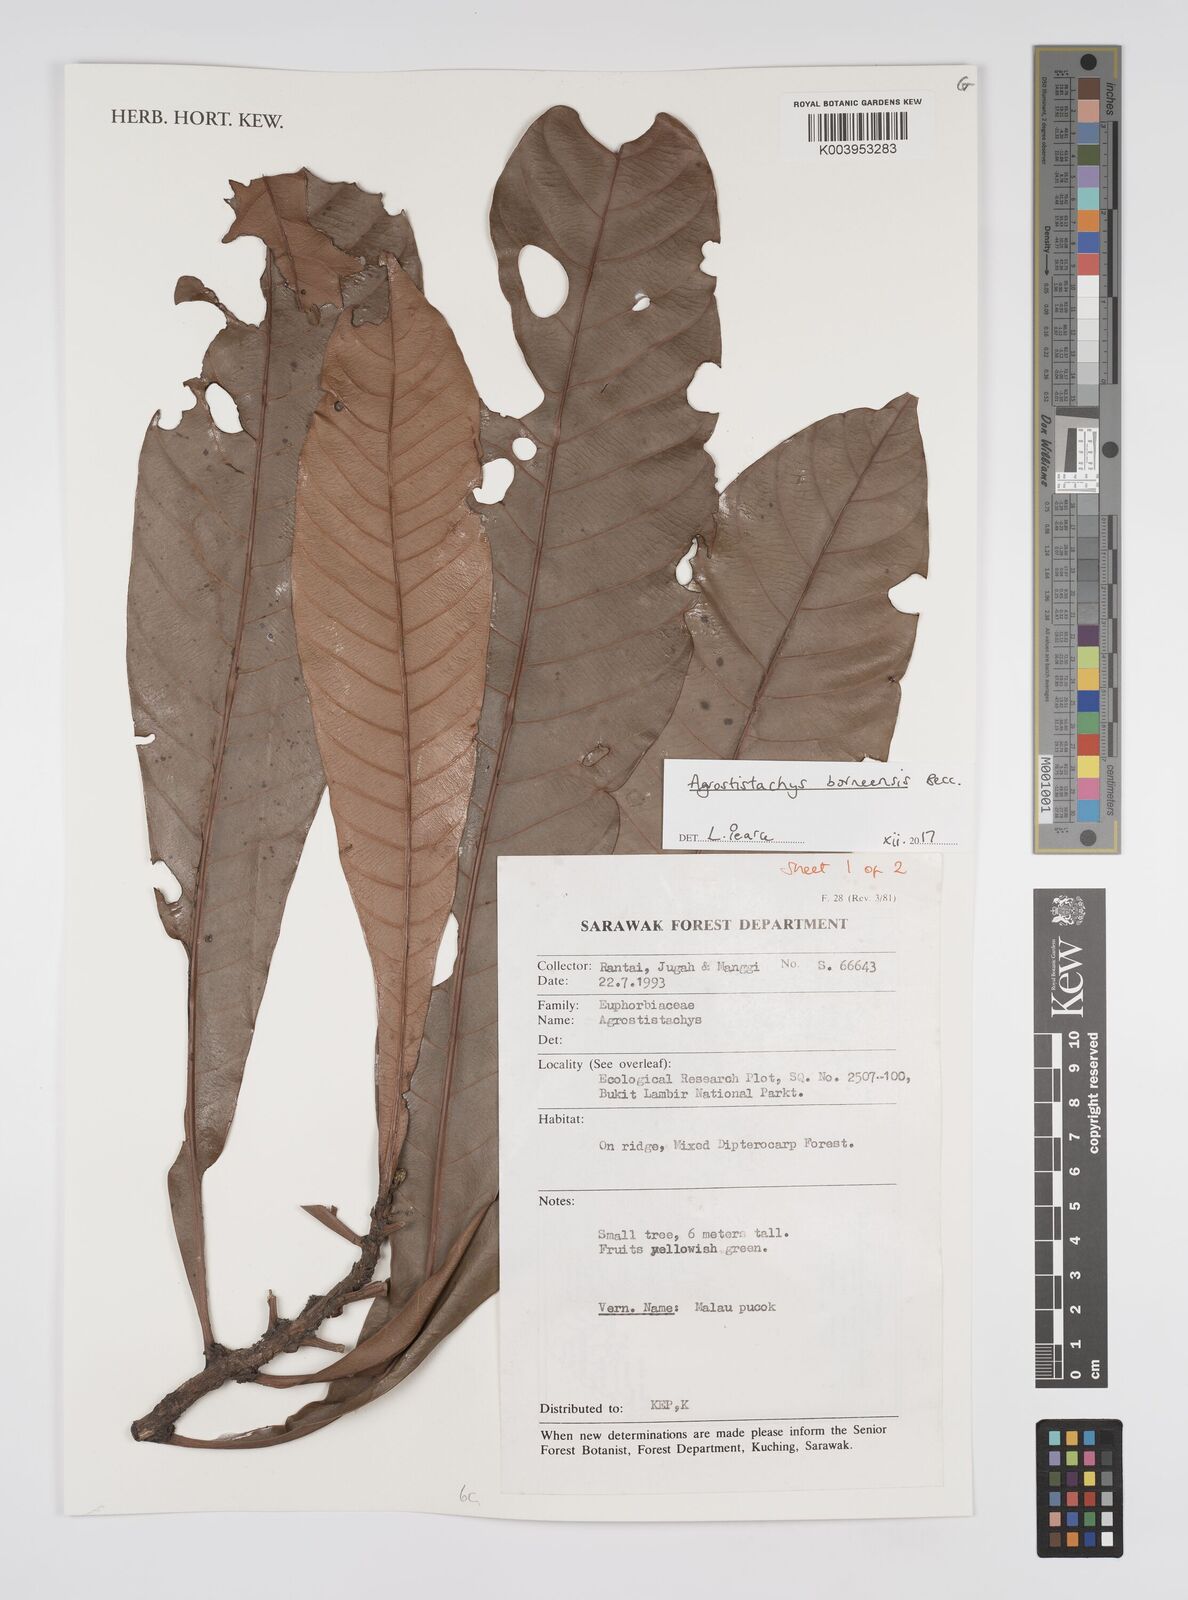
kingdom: Plantae
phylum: Tracheophyta
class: Magnoliopsida
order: Malpighiales
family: Euphorbiaceae
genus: Agrostistachys
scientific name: Agrostistachys borneensis
